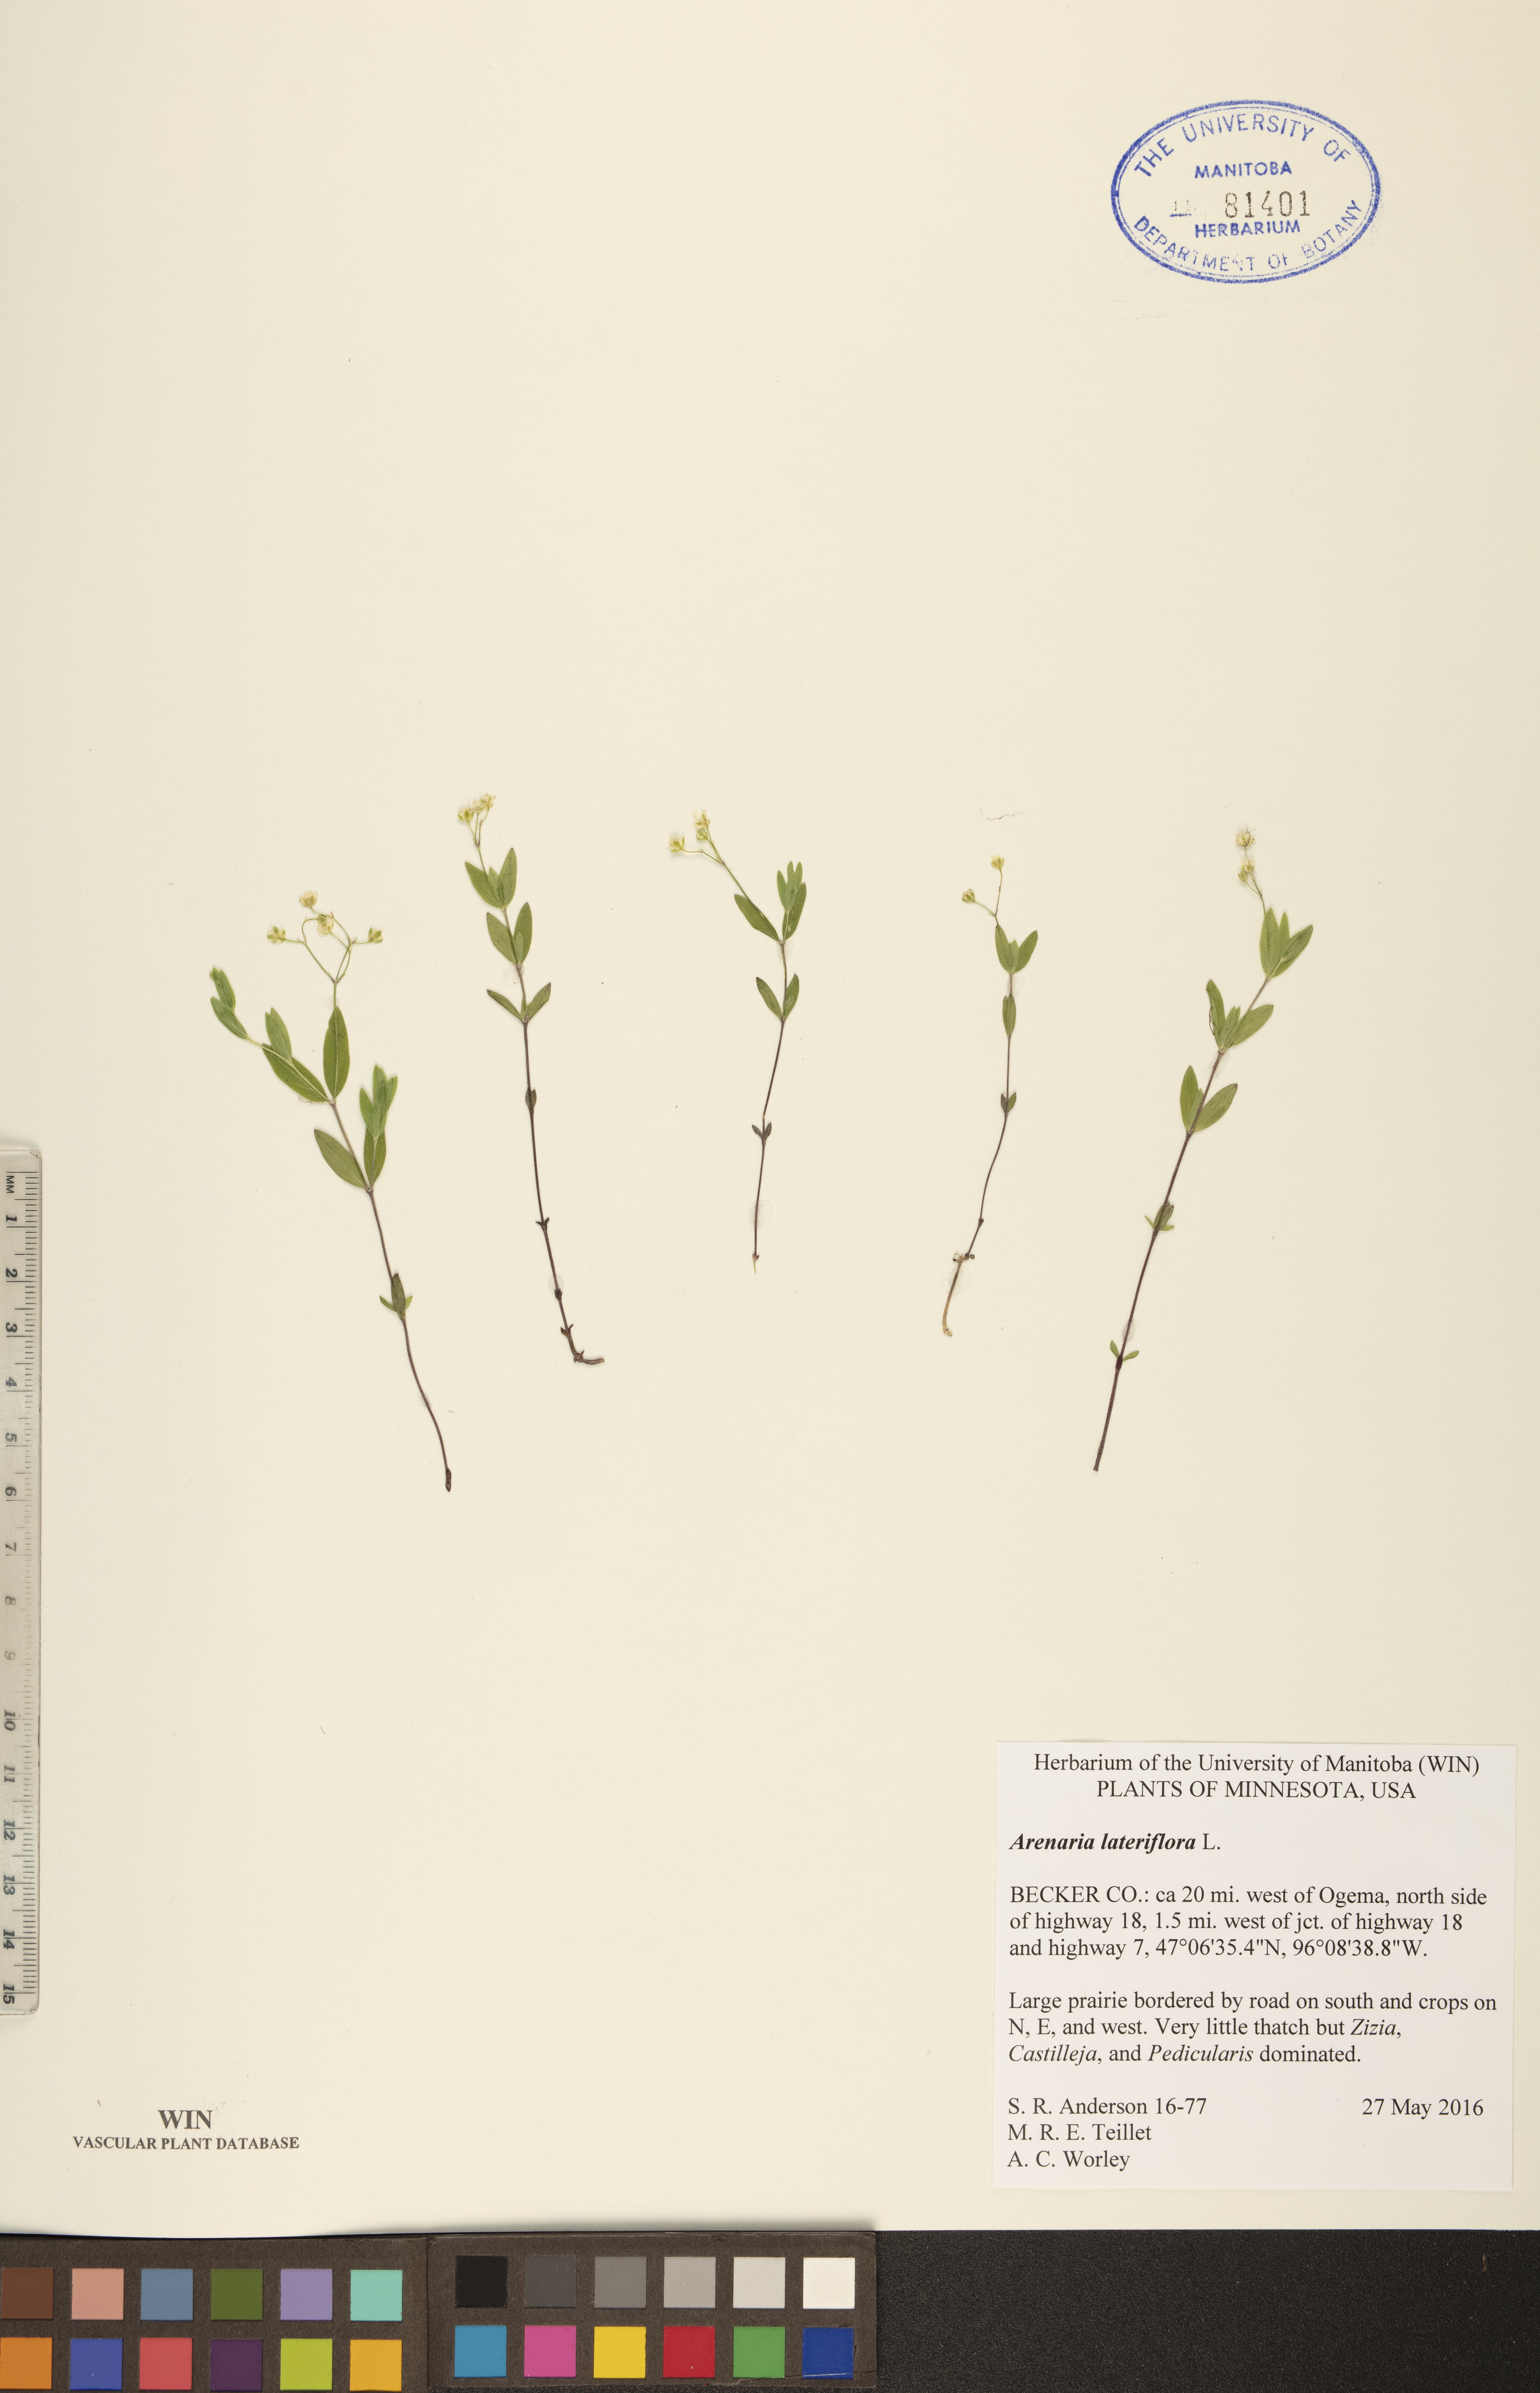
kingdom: Plantae
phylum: Tracheophyta
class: Magnoliopsida
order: Caryophyllales
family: Caryophyllaceae
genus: Moehringia
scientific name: Moehringia lateriflora
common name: Blunt-leaved sandwort
